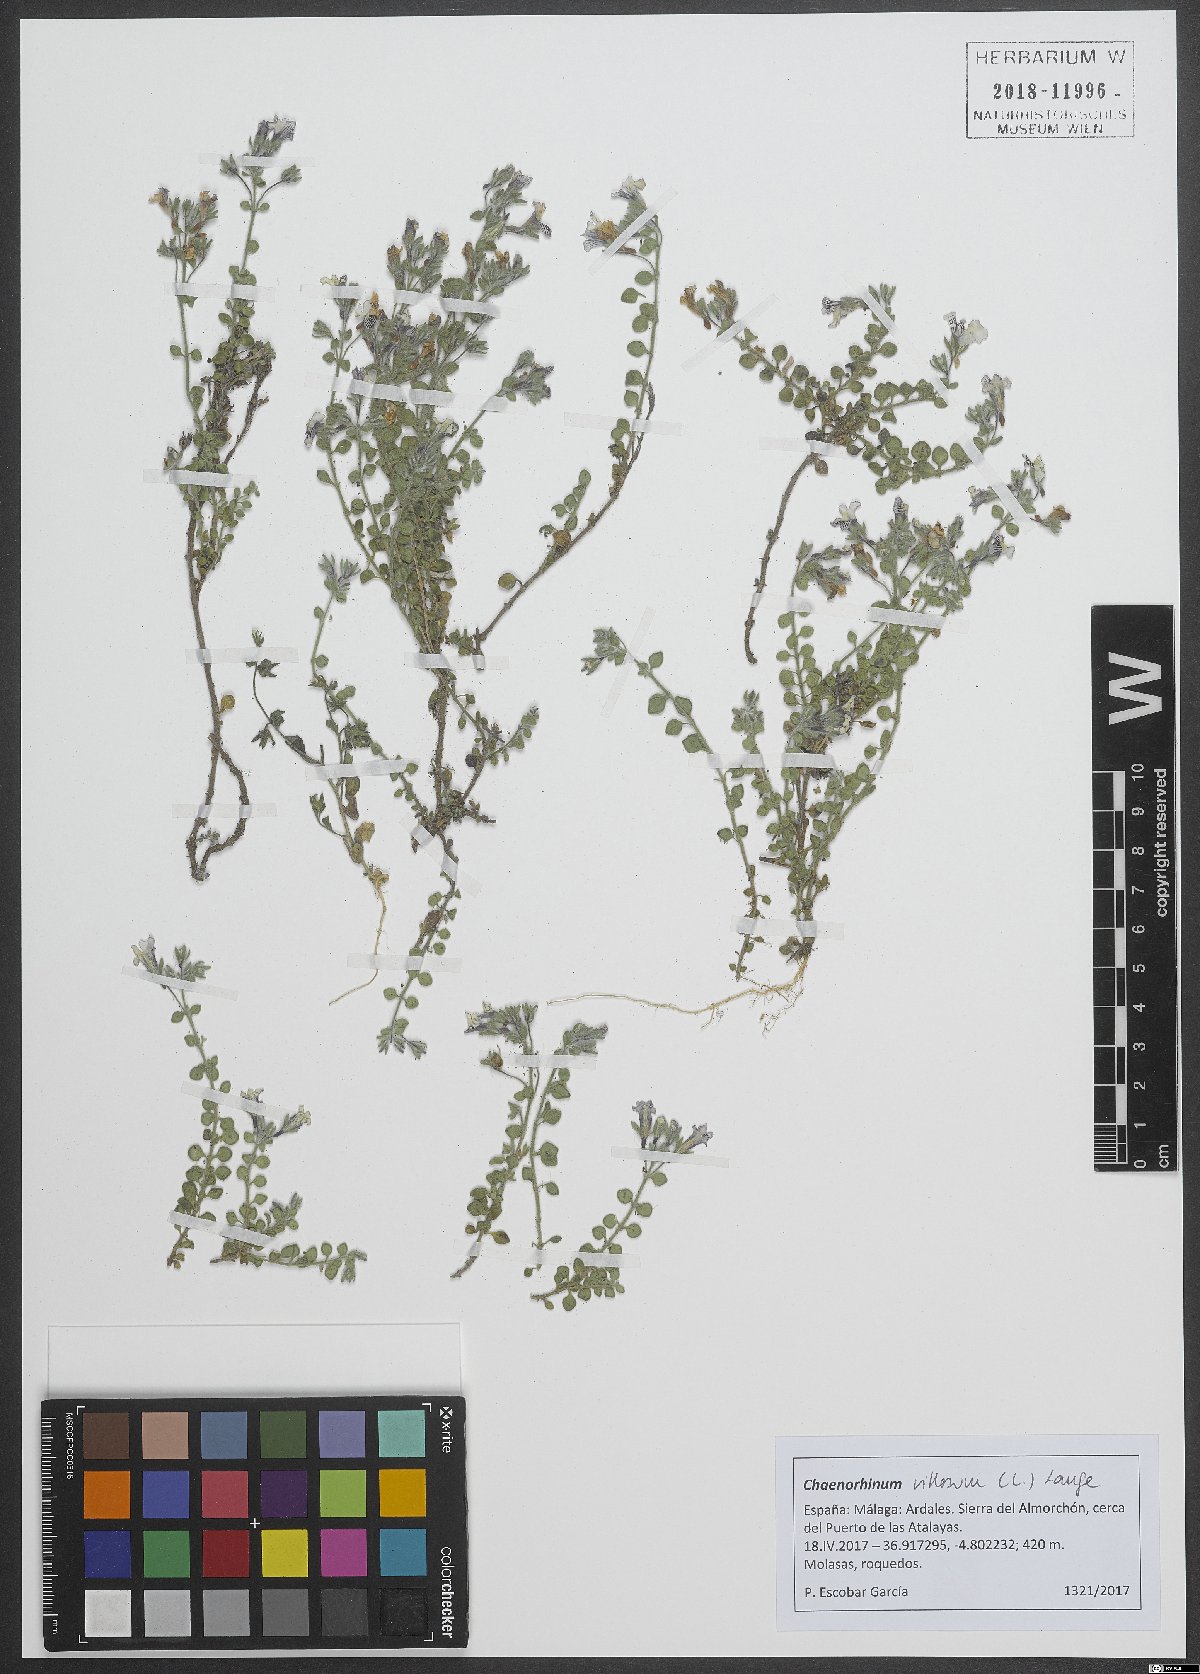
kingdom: Plantae
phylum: Tracheophyta
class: Magnoliopsida
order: Lamiales
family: Plantaginaceae
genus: Chaenorhinum
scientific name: Chaenorhinum villosum
